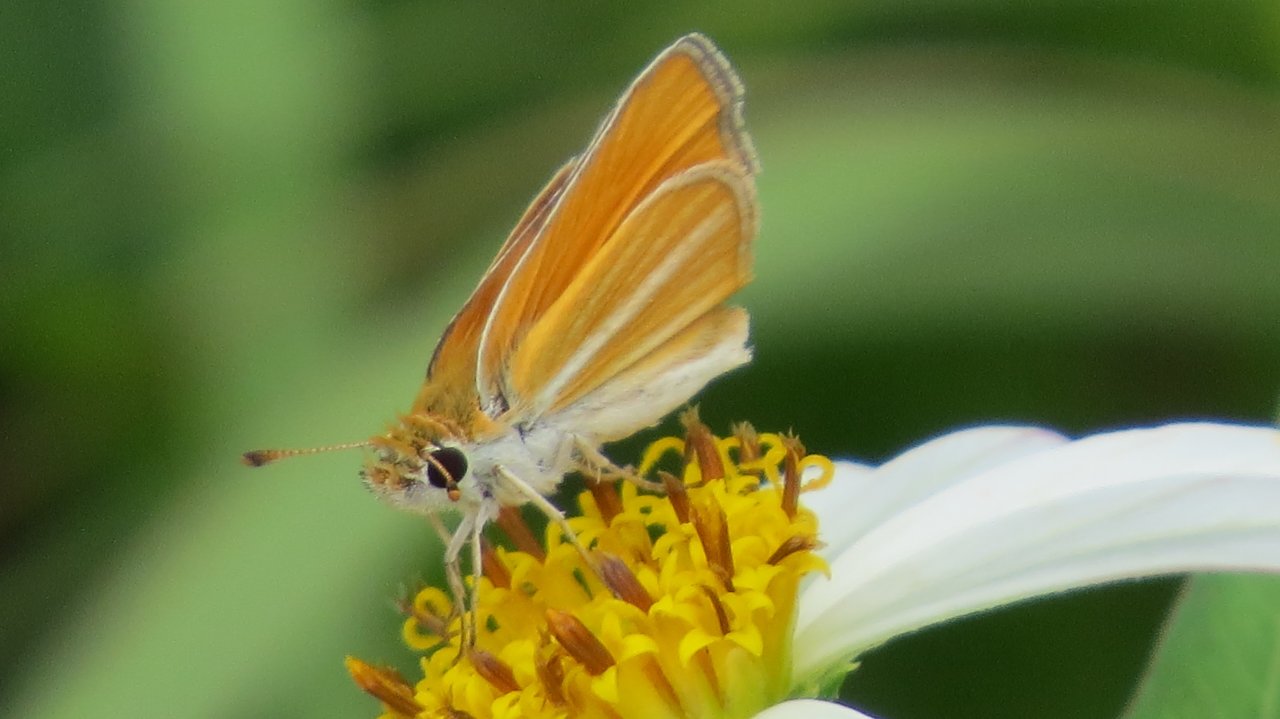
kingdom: Animalia
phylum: Arthropoda
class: Insecta
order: Lepidoptera
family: Hesperiidae
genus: Copaeodes
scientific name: Copaeodes minima
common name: Southern Skipperling
